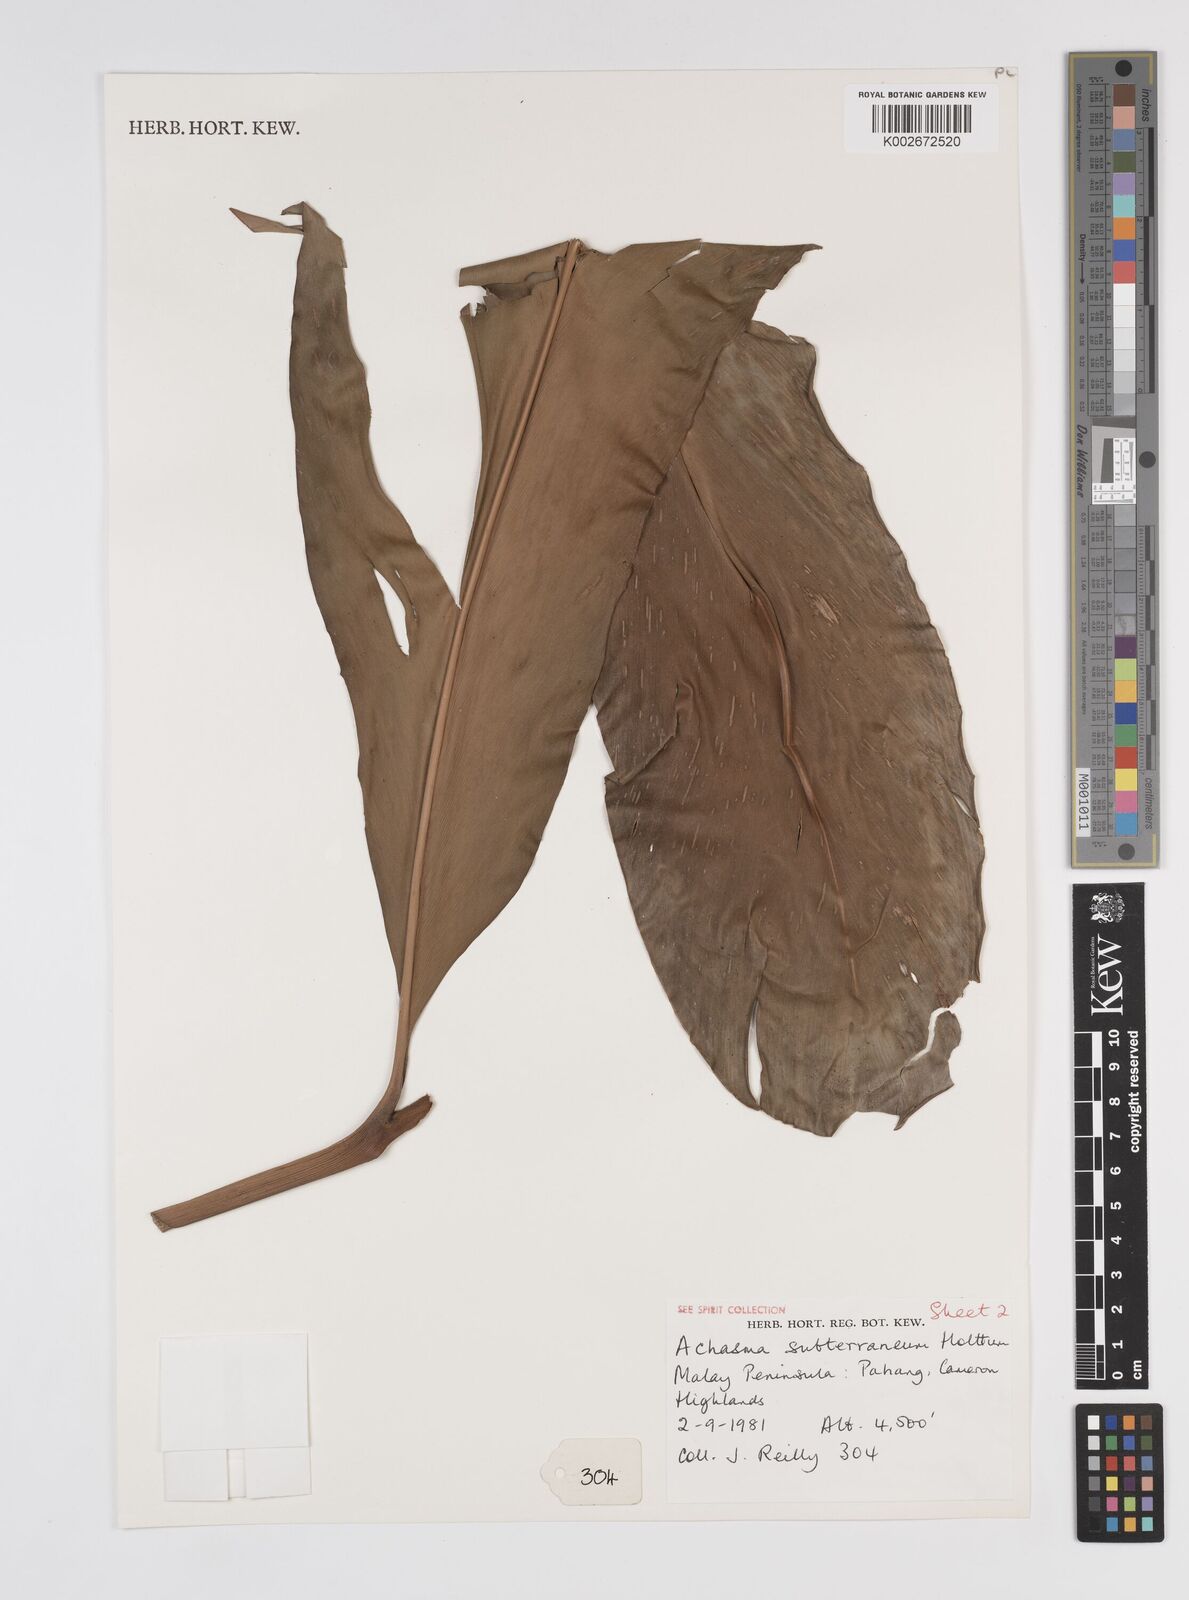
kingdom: Plantae
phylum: Tracheophyta
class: Liliopsida
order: Zingiberales
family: Zingiberaceae
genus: Etlingera
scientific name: Etlingera subterranea
